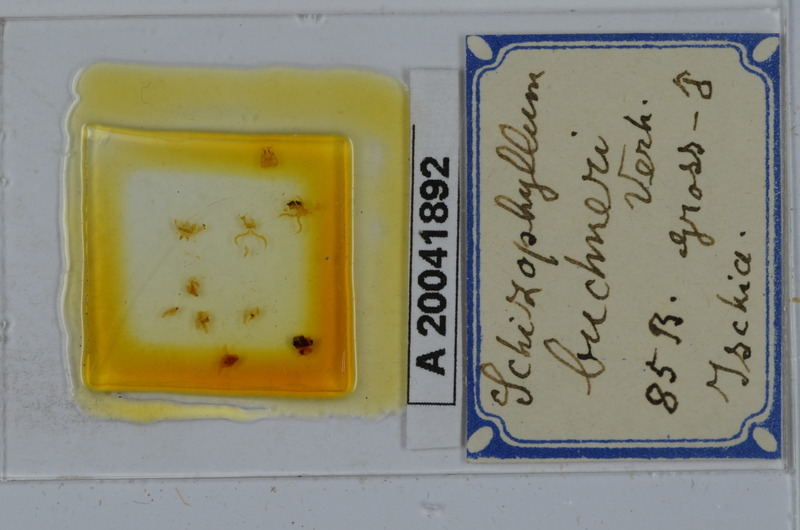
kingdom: Animalia
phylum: Arthropoda
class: Diplopoda
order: Julida
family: Julidae
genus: Schizophyllum
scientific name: Schizophyllum buchneri
